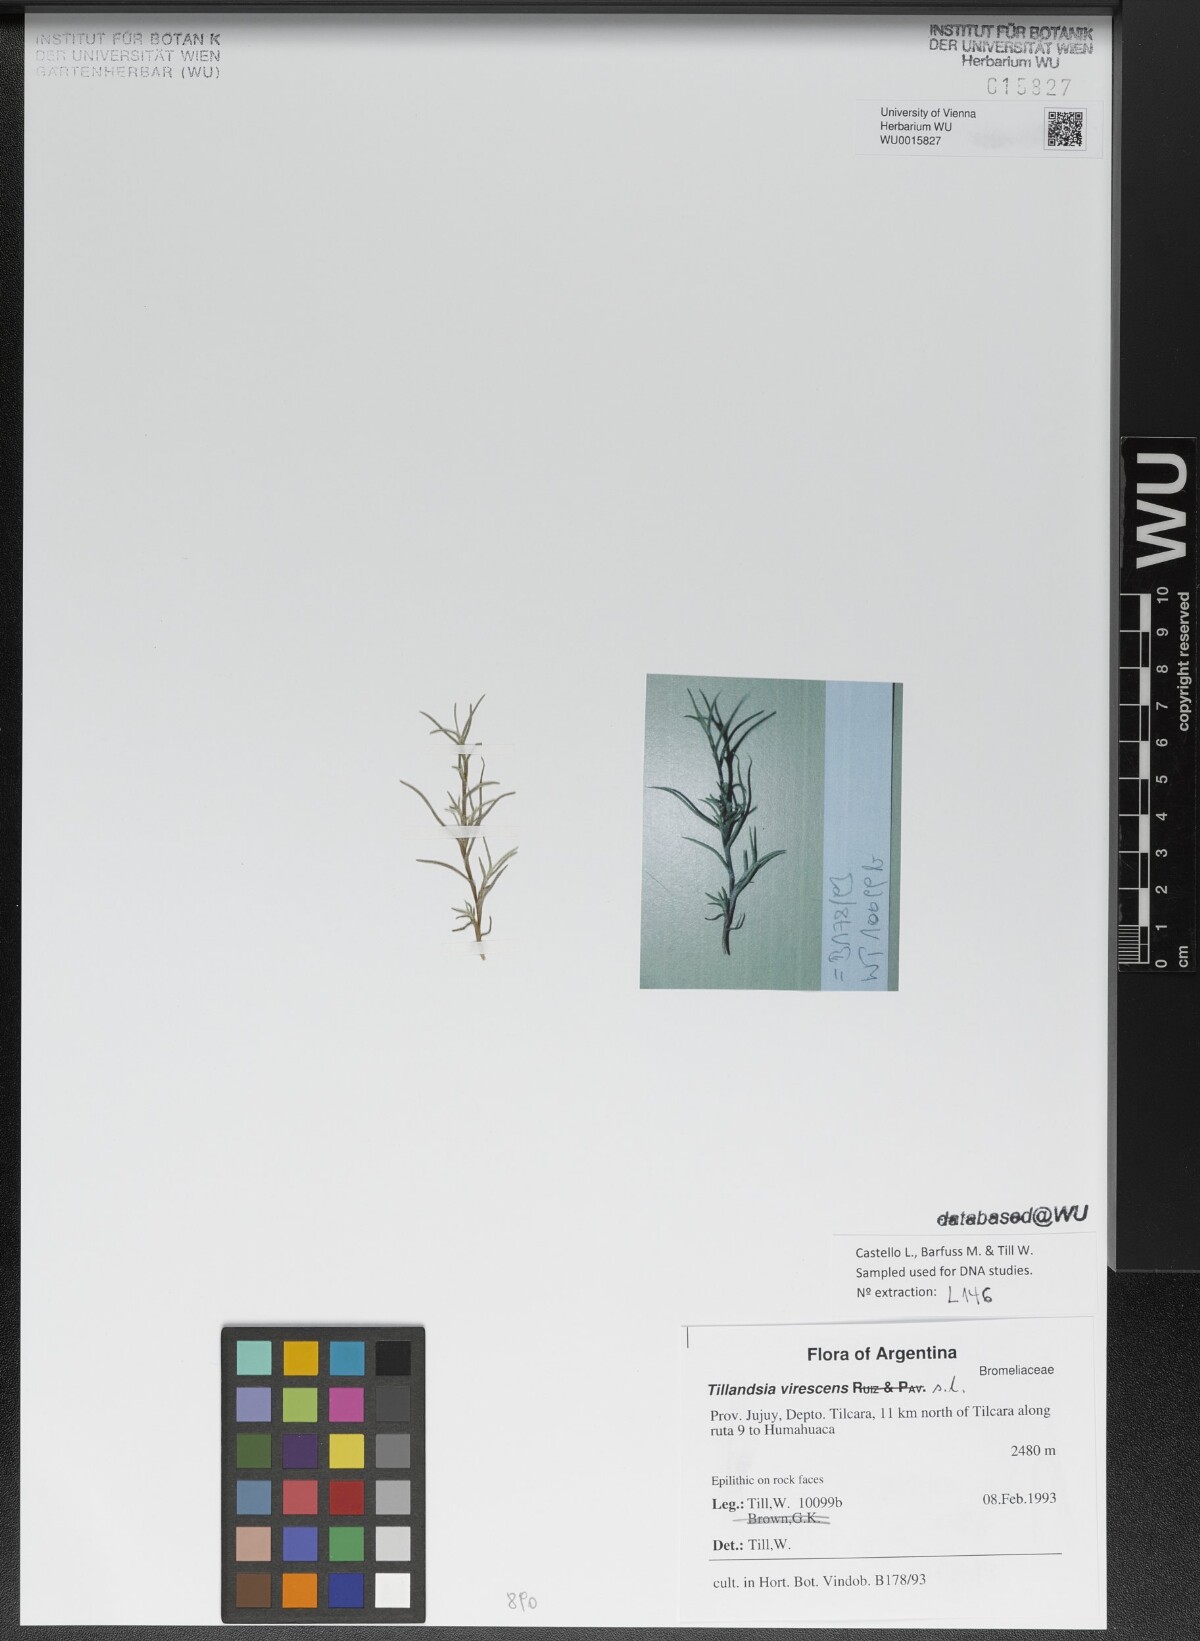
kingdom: Plantae
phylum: Tracheophyta
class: Liliopsida
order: Poales
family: Bromeliaceae
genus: Tillandsia
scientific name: Tillandsia virescens
